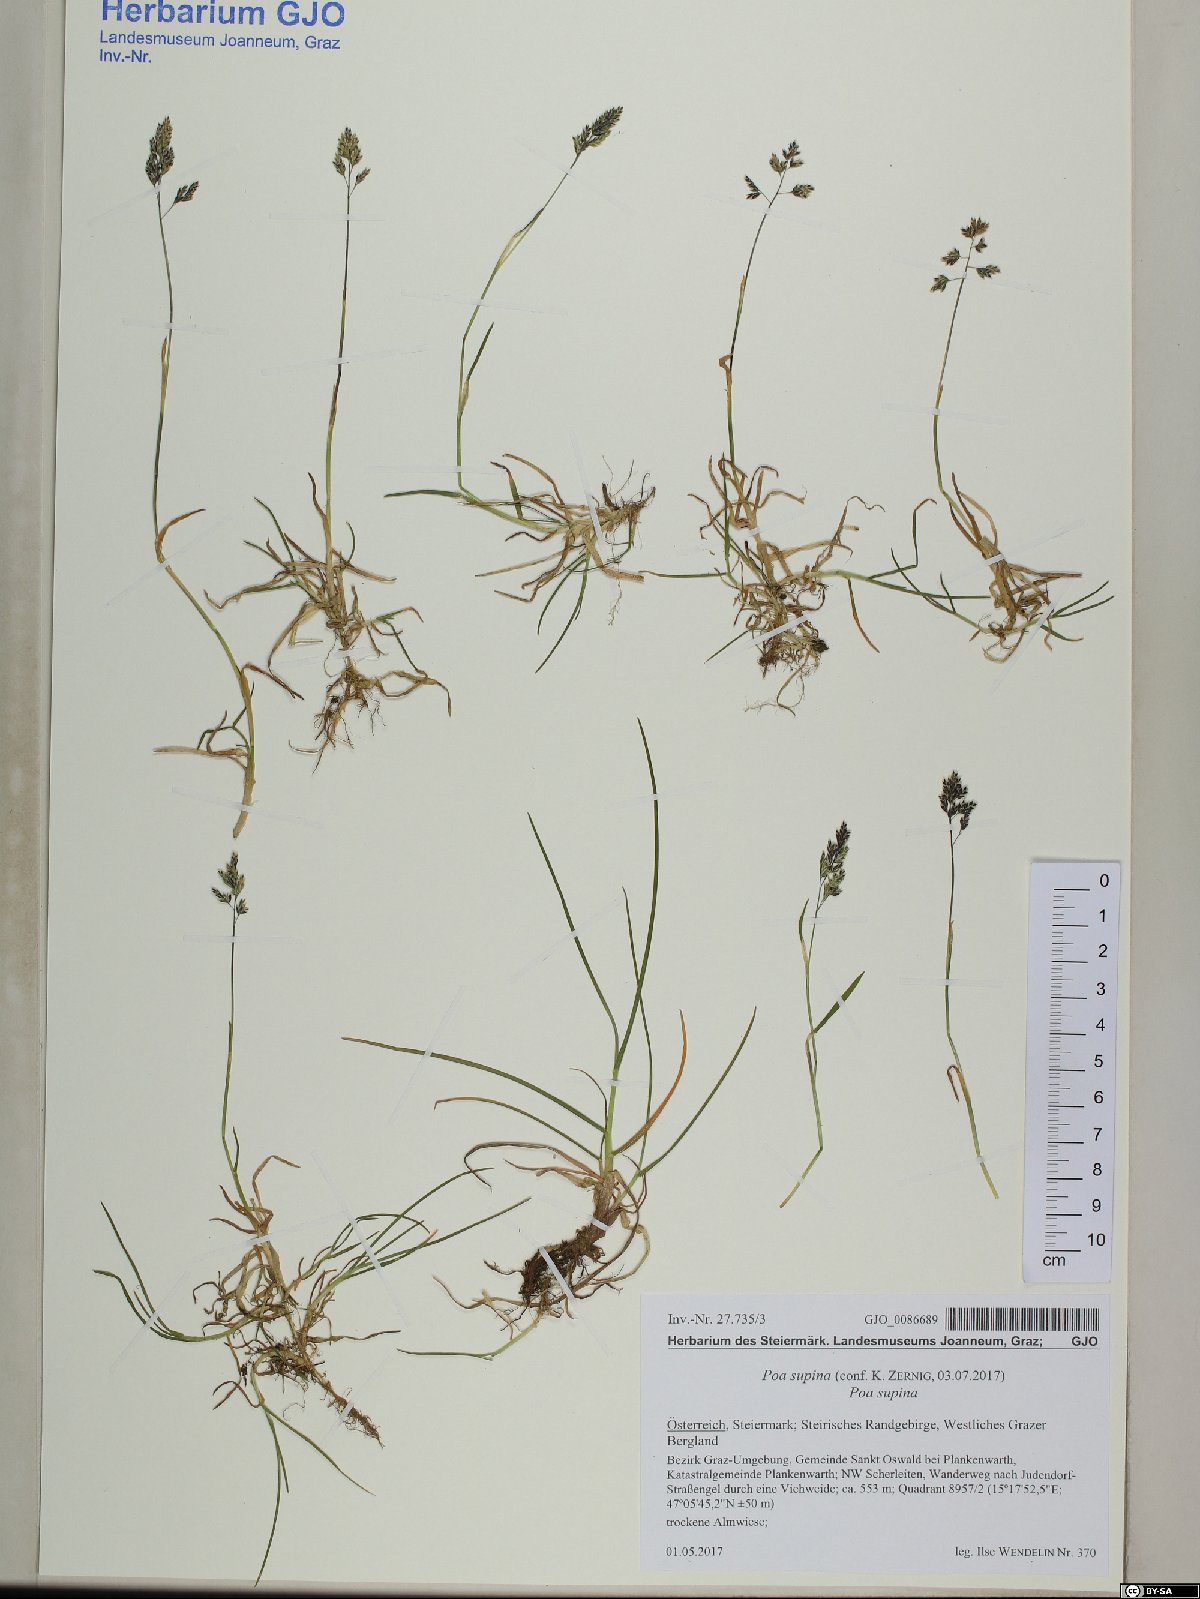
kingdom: Plantae
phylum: Tracheophyta
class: Liliopsida
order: Poales
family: Poaceae
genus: Poa
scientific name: Poa supina
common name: Supina bluegrass
